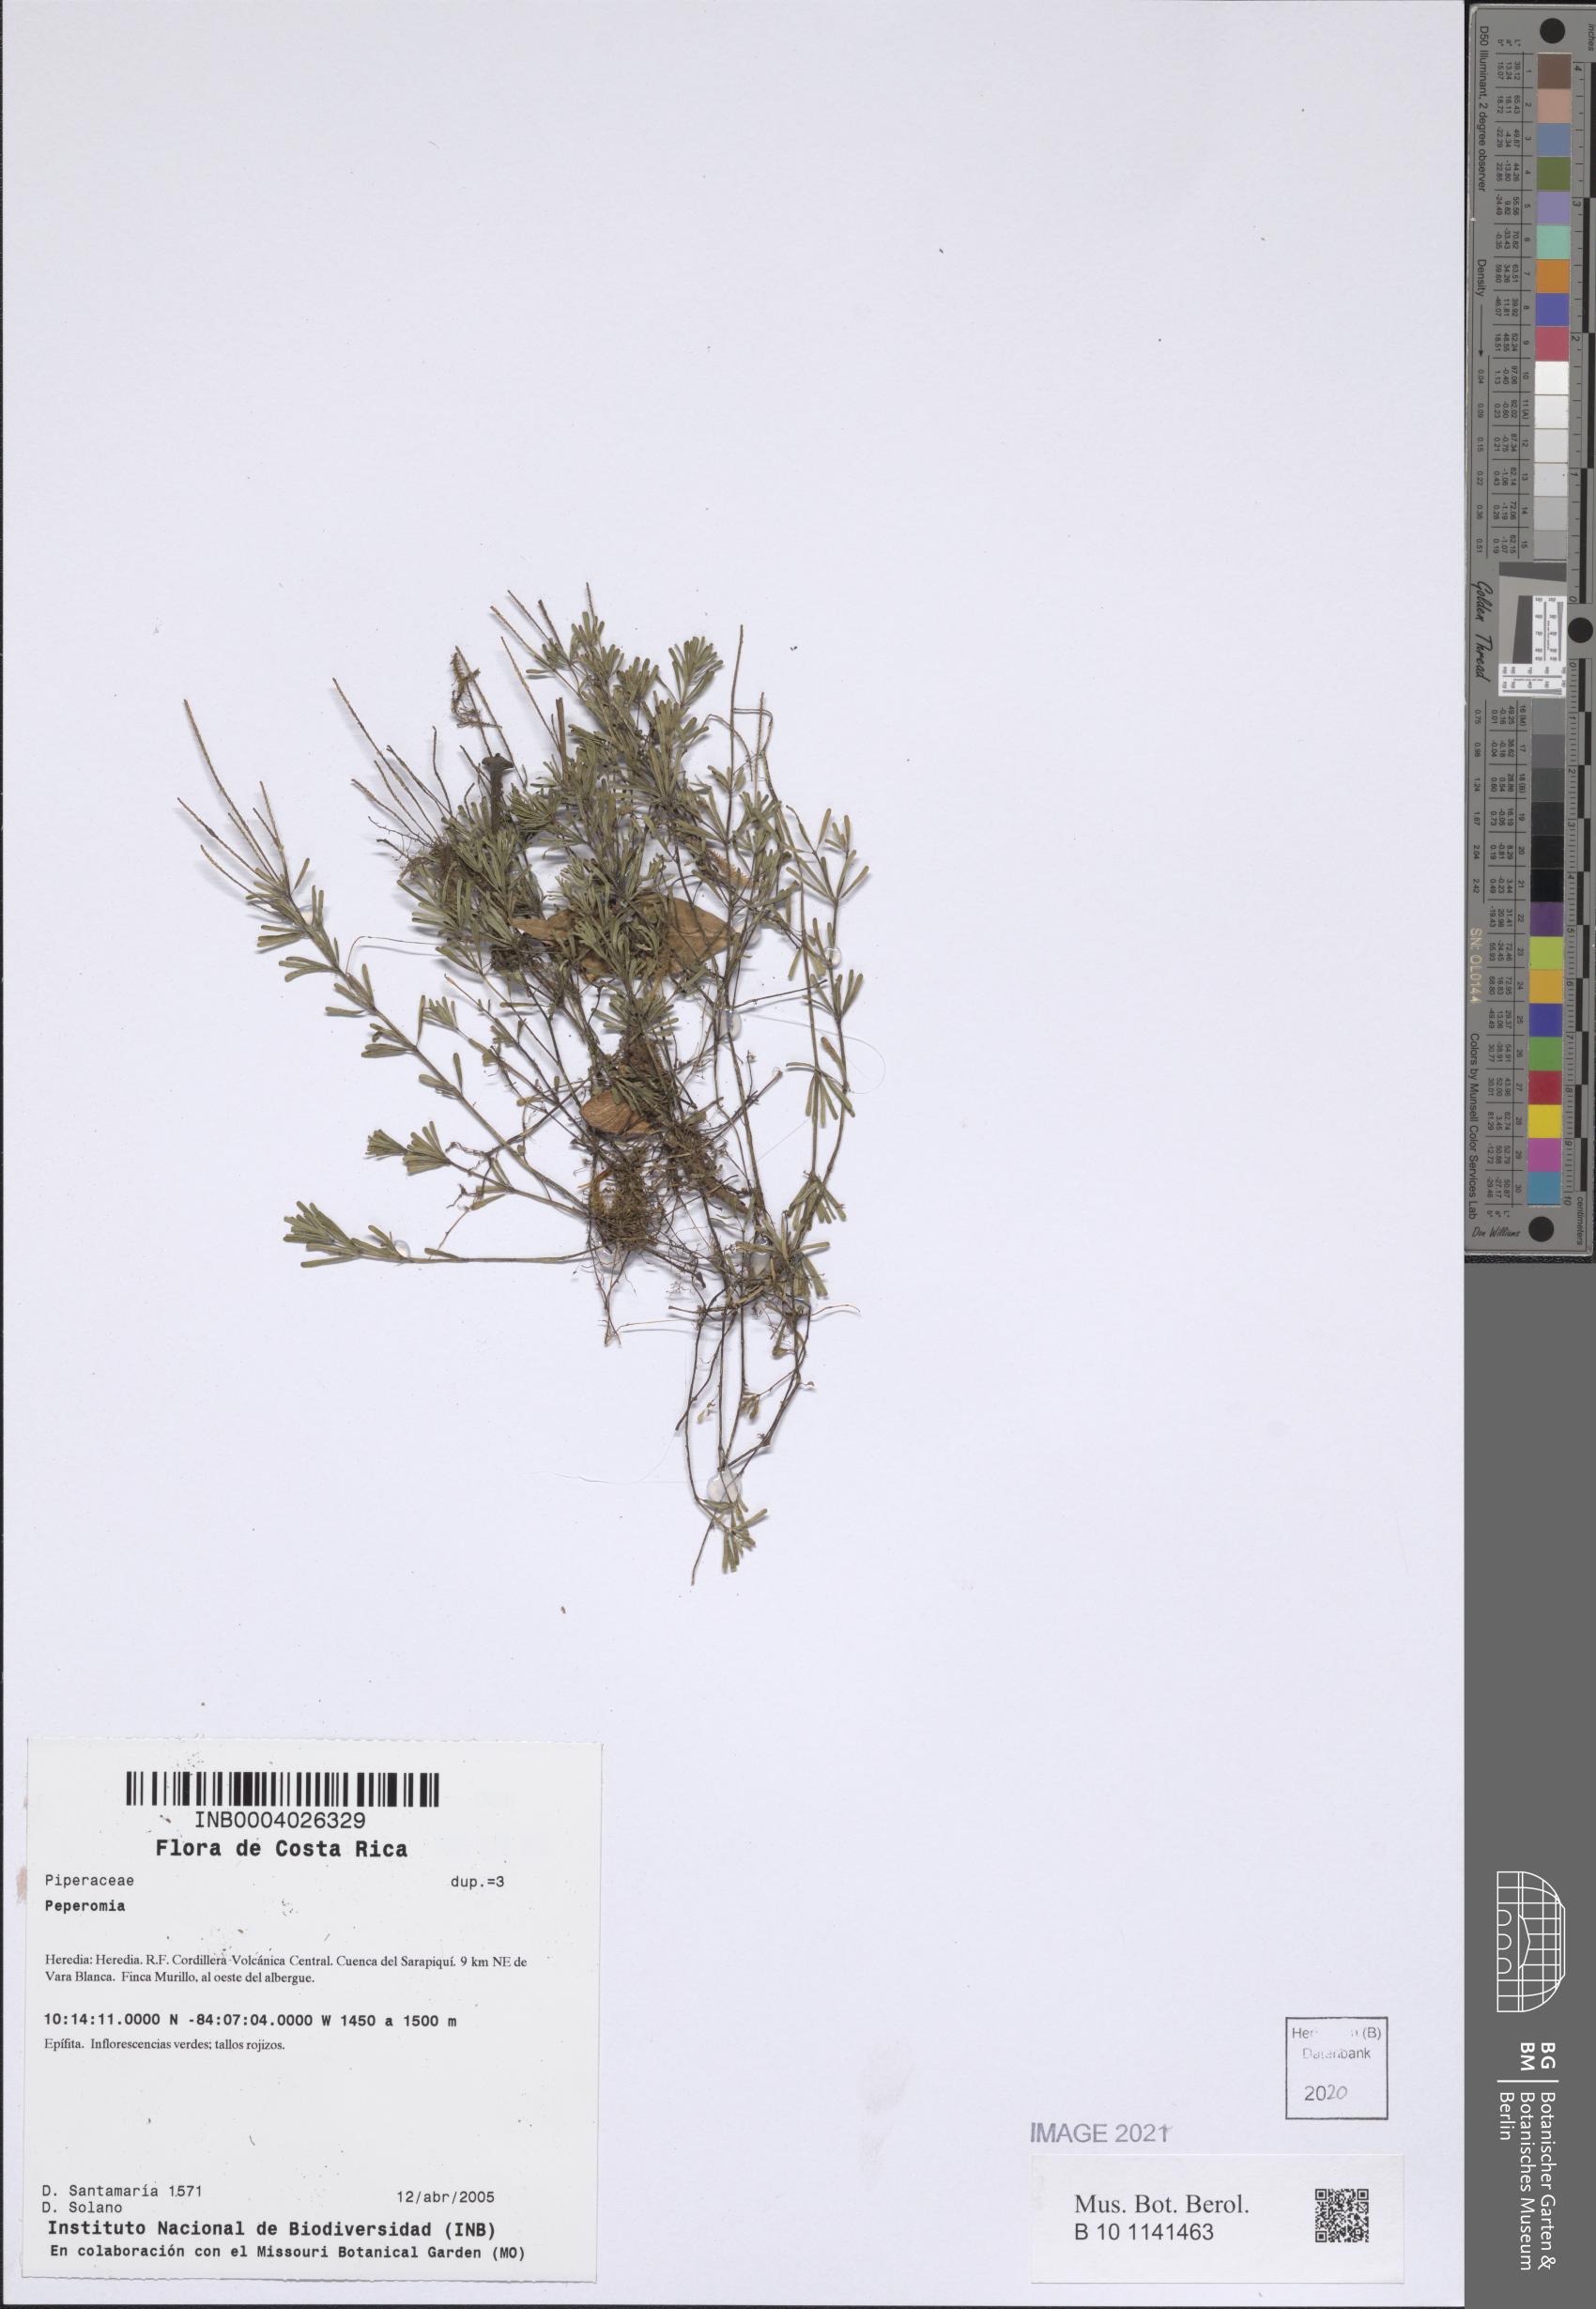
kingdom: Plantae
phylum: Tracheophyta
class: Magnoliopsida
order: Piperales
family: Piperaceae
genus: Peperomia
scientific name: Peperomia
